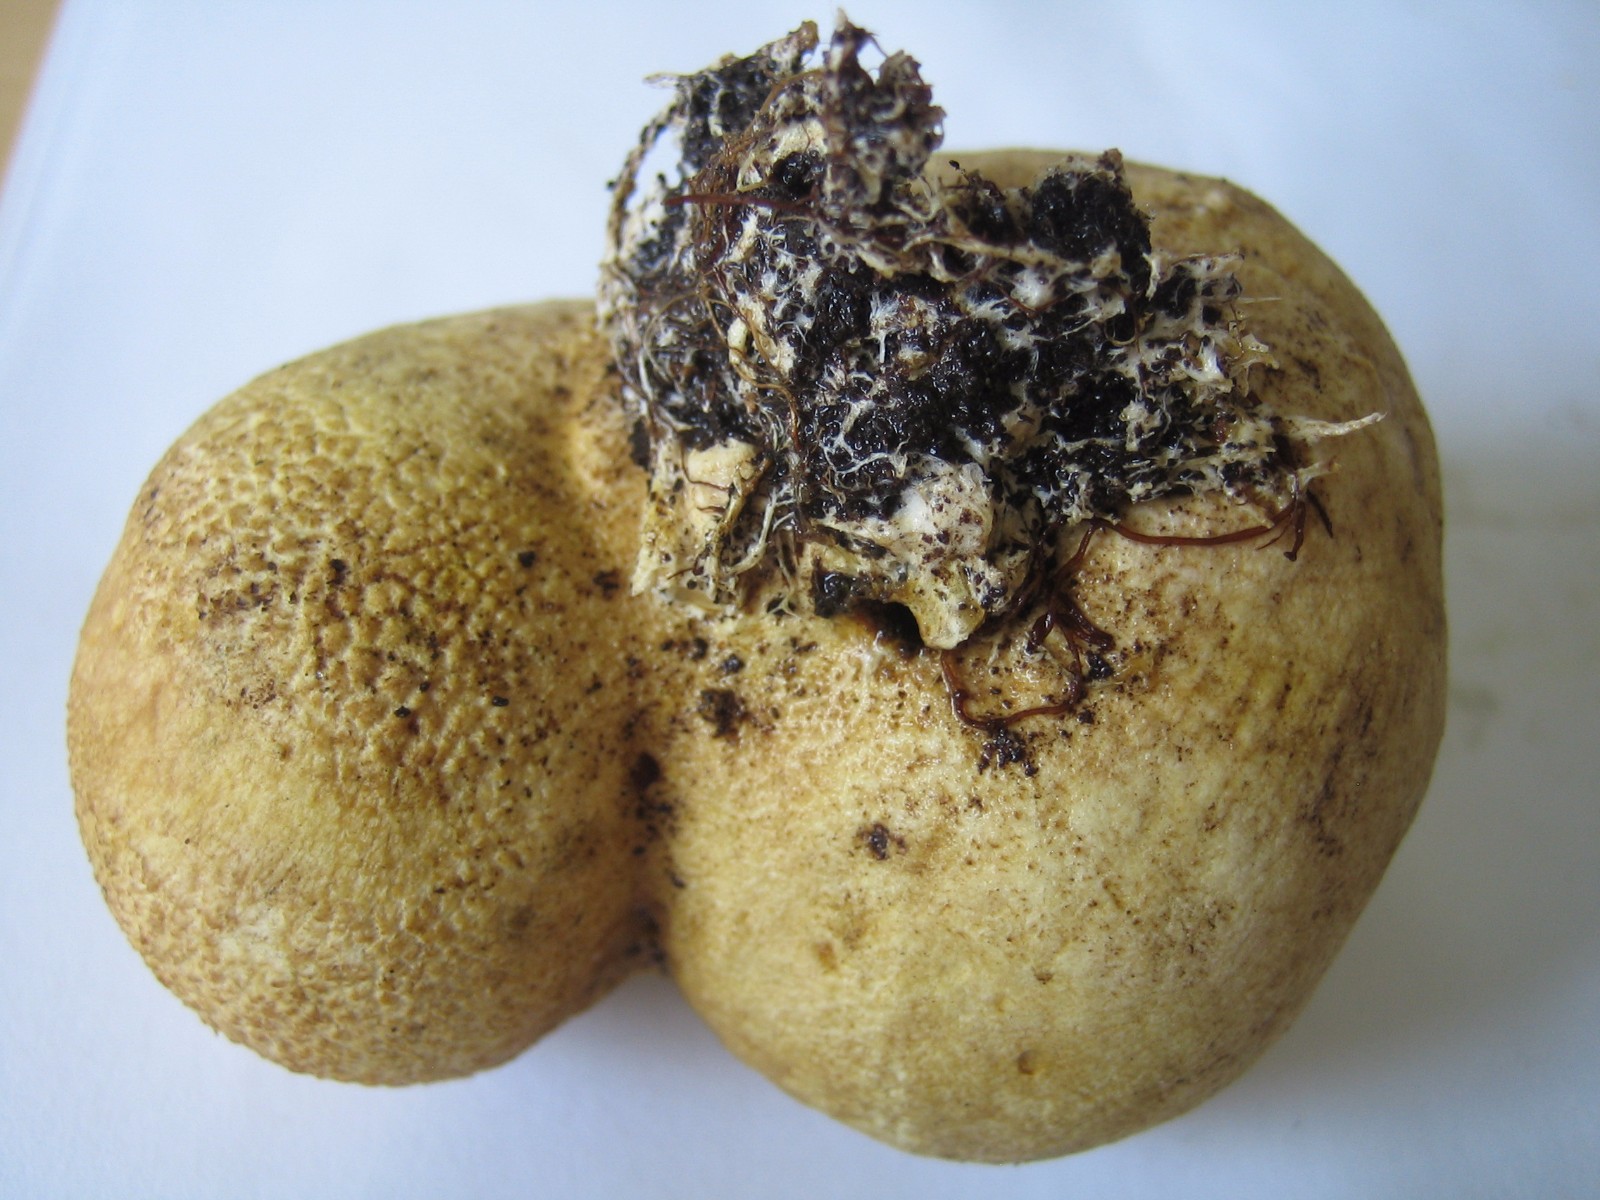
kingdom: Fungi
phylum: Basidiomycota
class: Agaricomycetes
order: Boletales
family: Sclerodermataceae
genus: Scleroderma
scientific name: Scleroderma citrinum
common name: almindelig bruskbold
